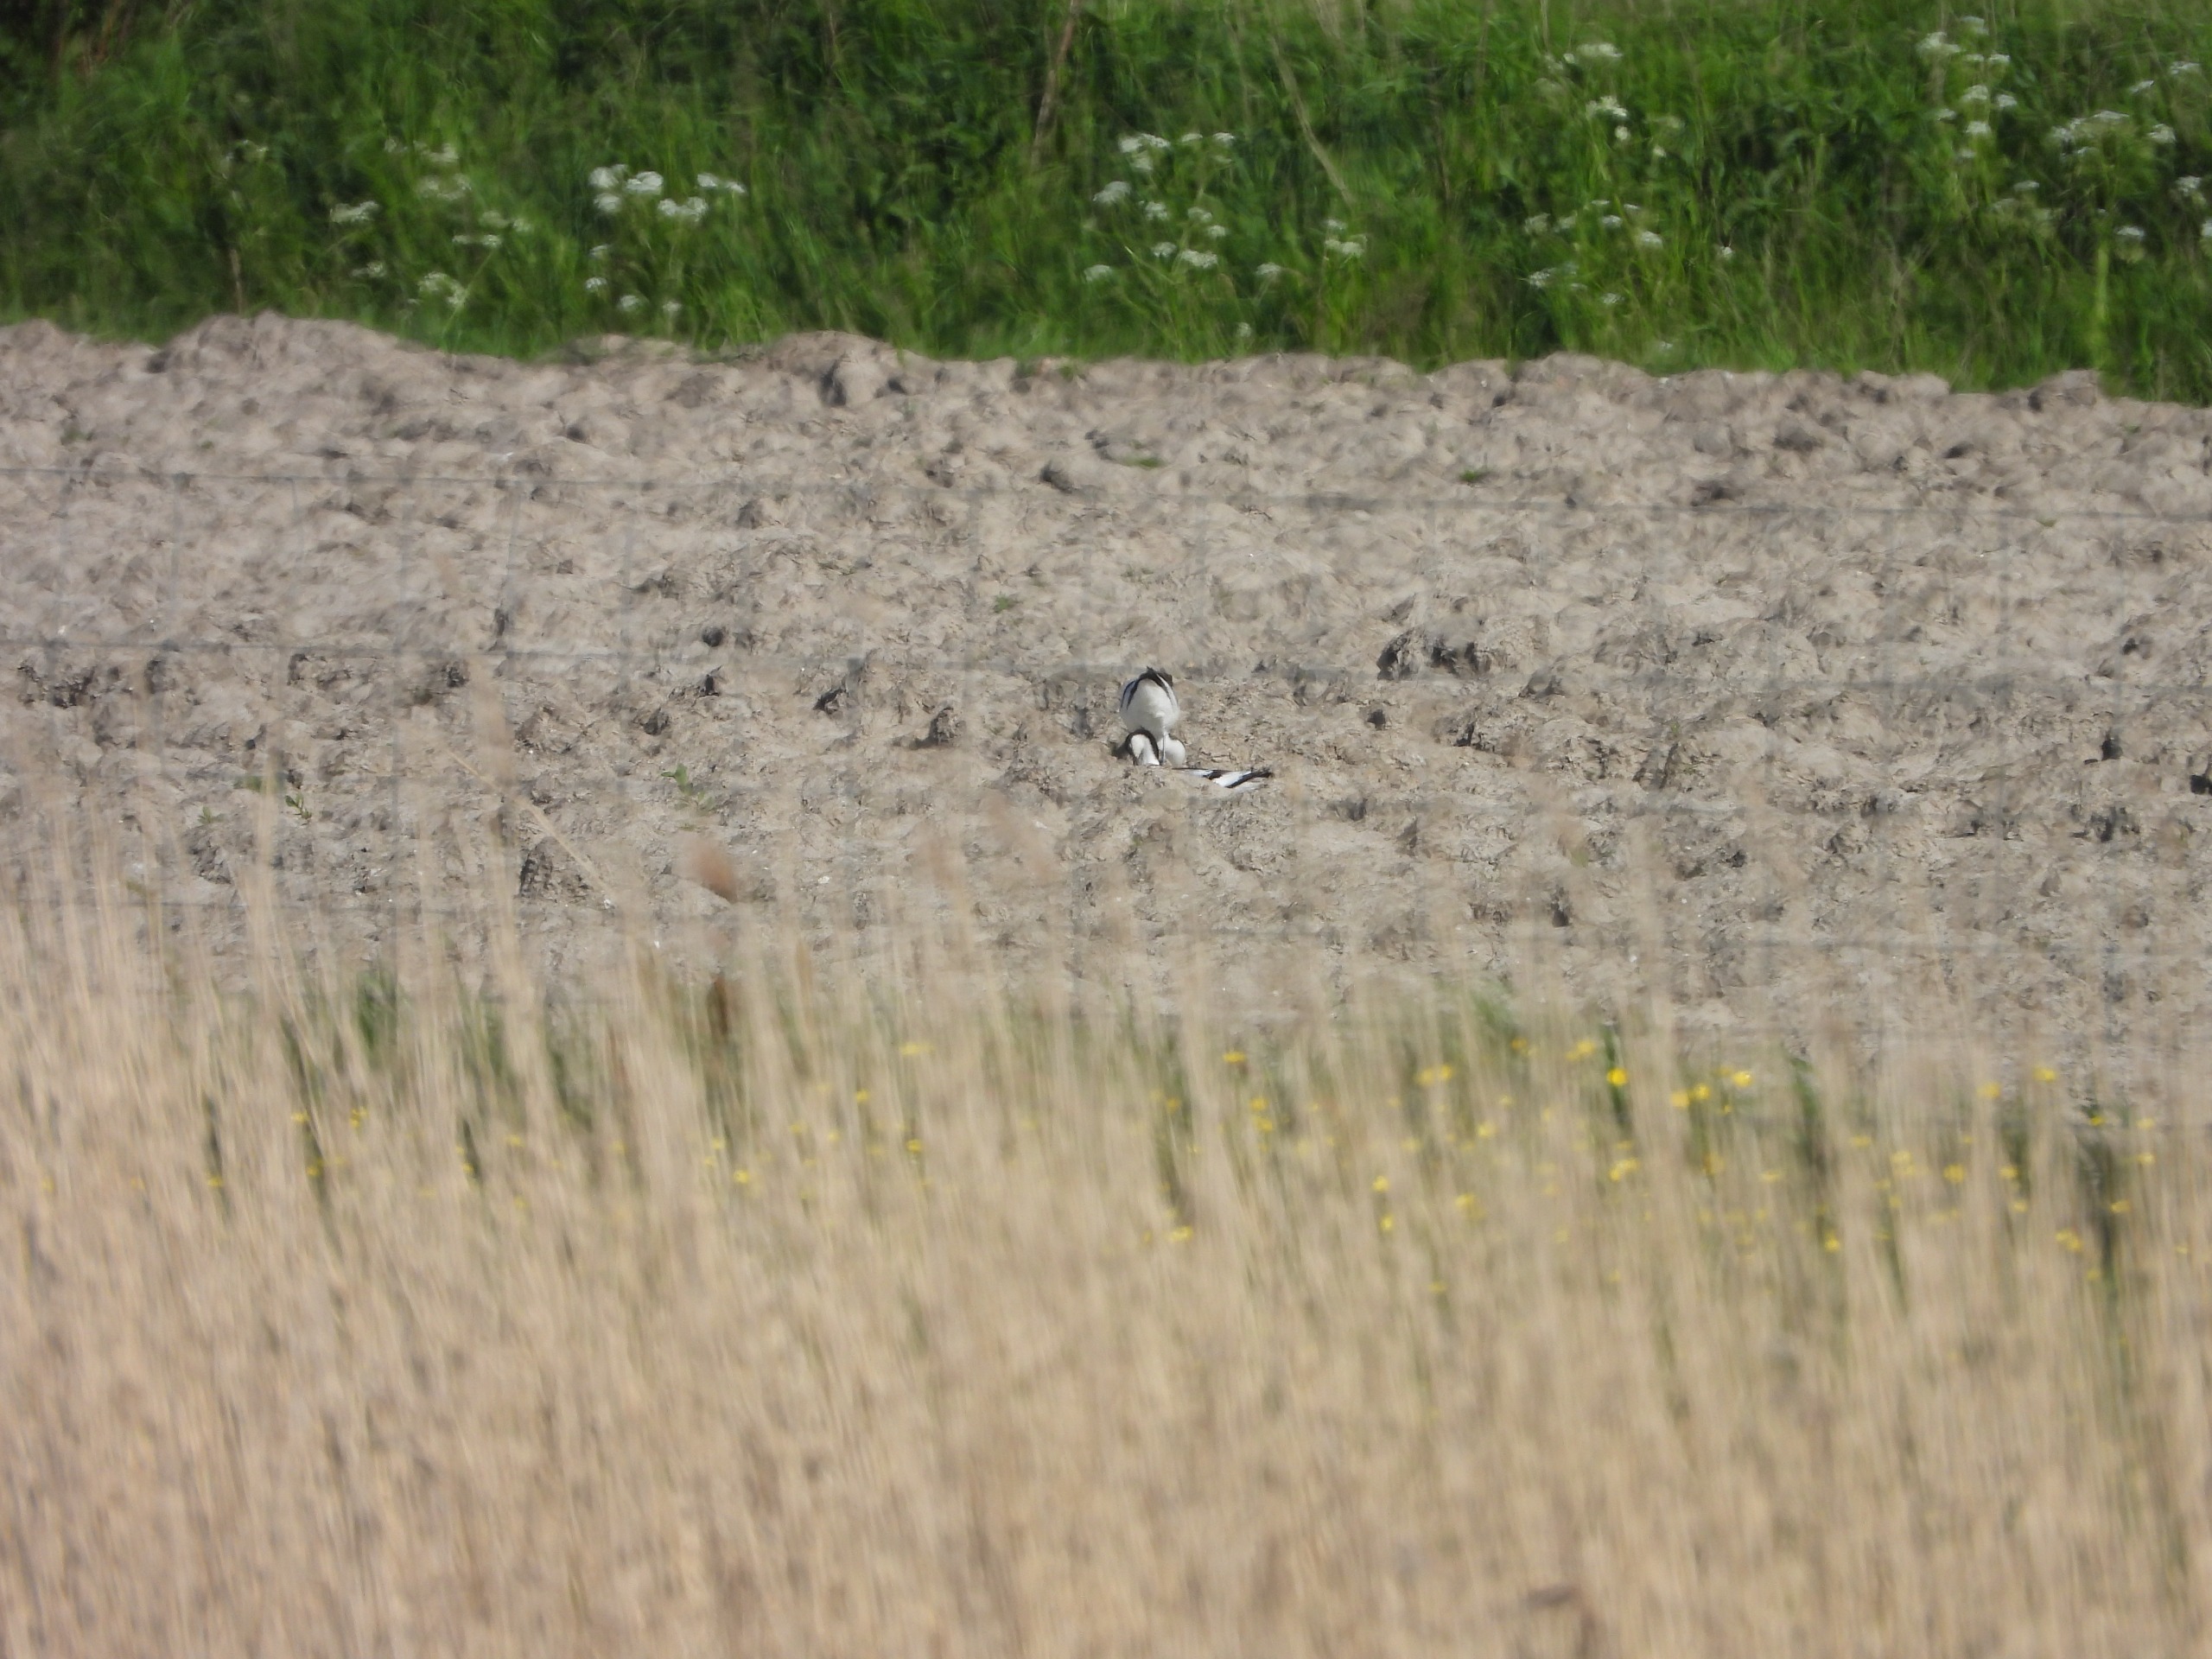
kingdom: Animalia
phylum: Chordata
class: Aves
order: Charadriiformes
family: Recurvirostridae
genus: Recurvirostra
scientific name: Recurvirostra avosetta
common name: Klyde
